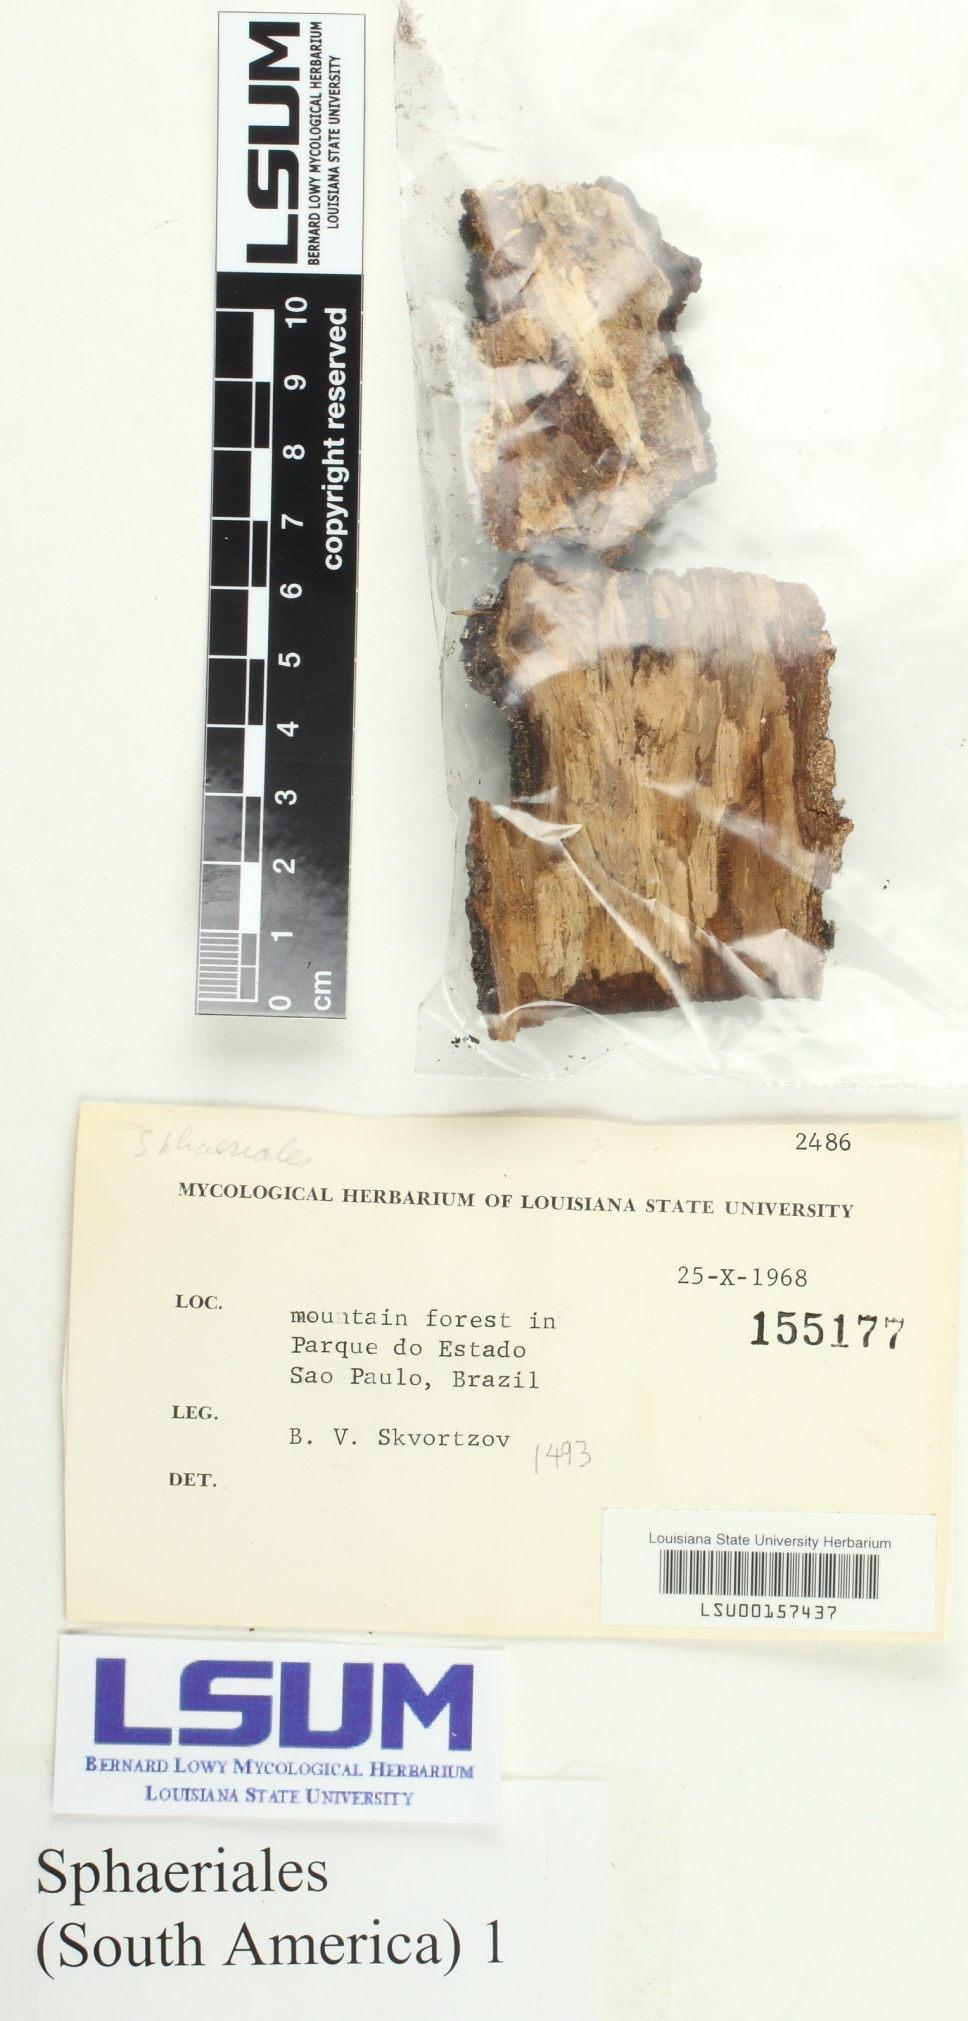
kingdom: Fungi
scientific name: Fungi
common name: Fungi
